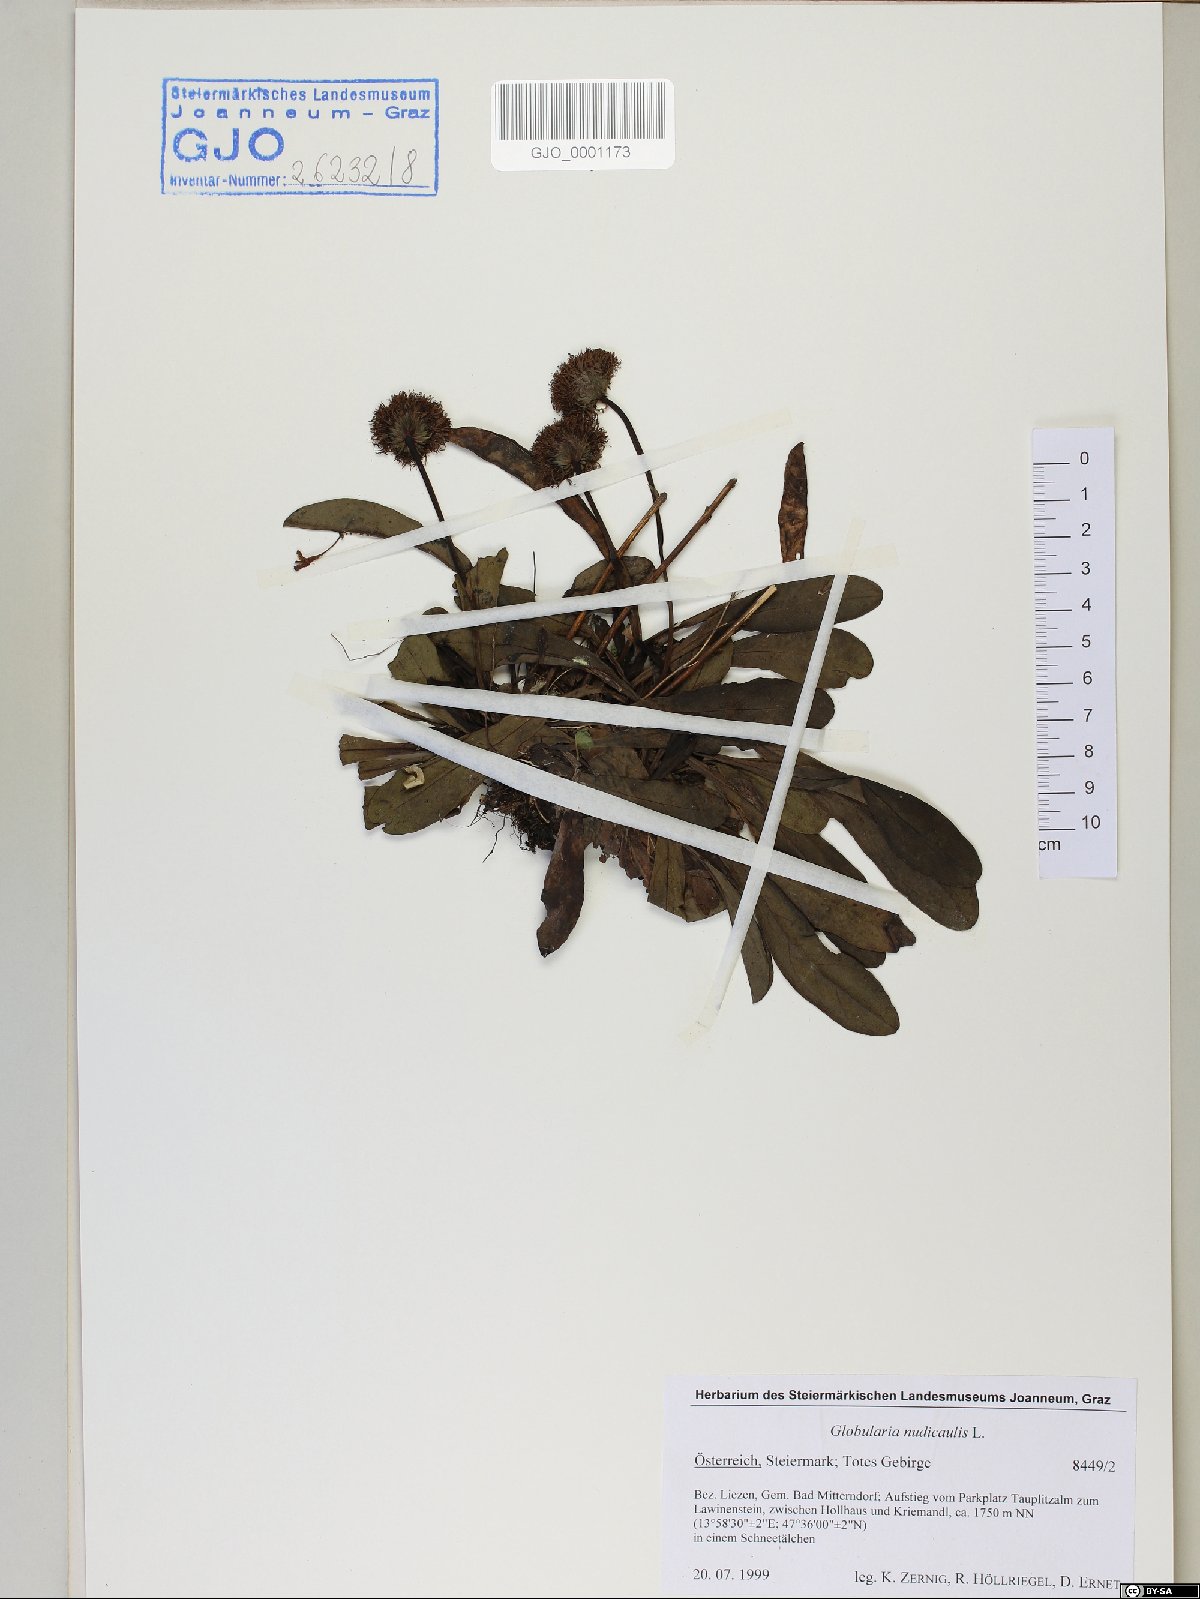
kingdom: Plantae
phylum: Tracheophyta
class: Magnoliopsida
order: Lamiales
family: Plantaginaceae
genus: Globularia
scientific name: Globularia nudicaulis
